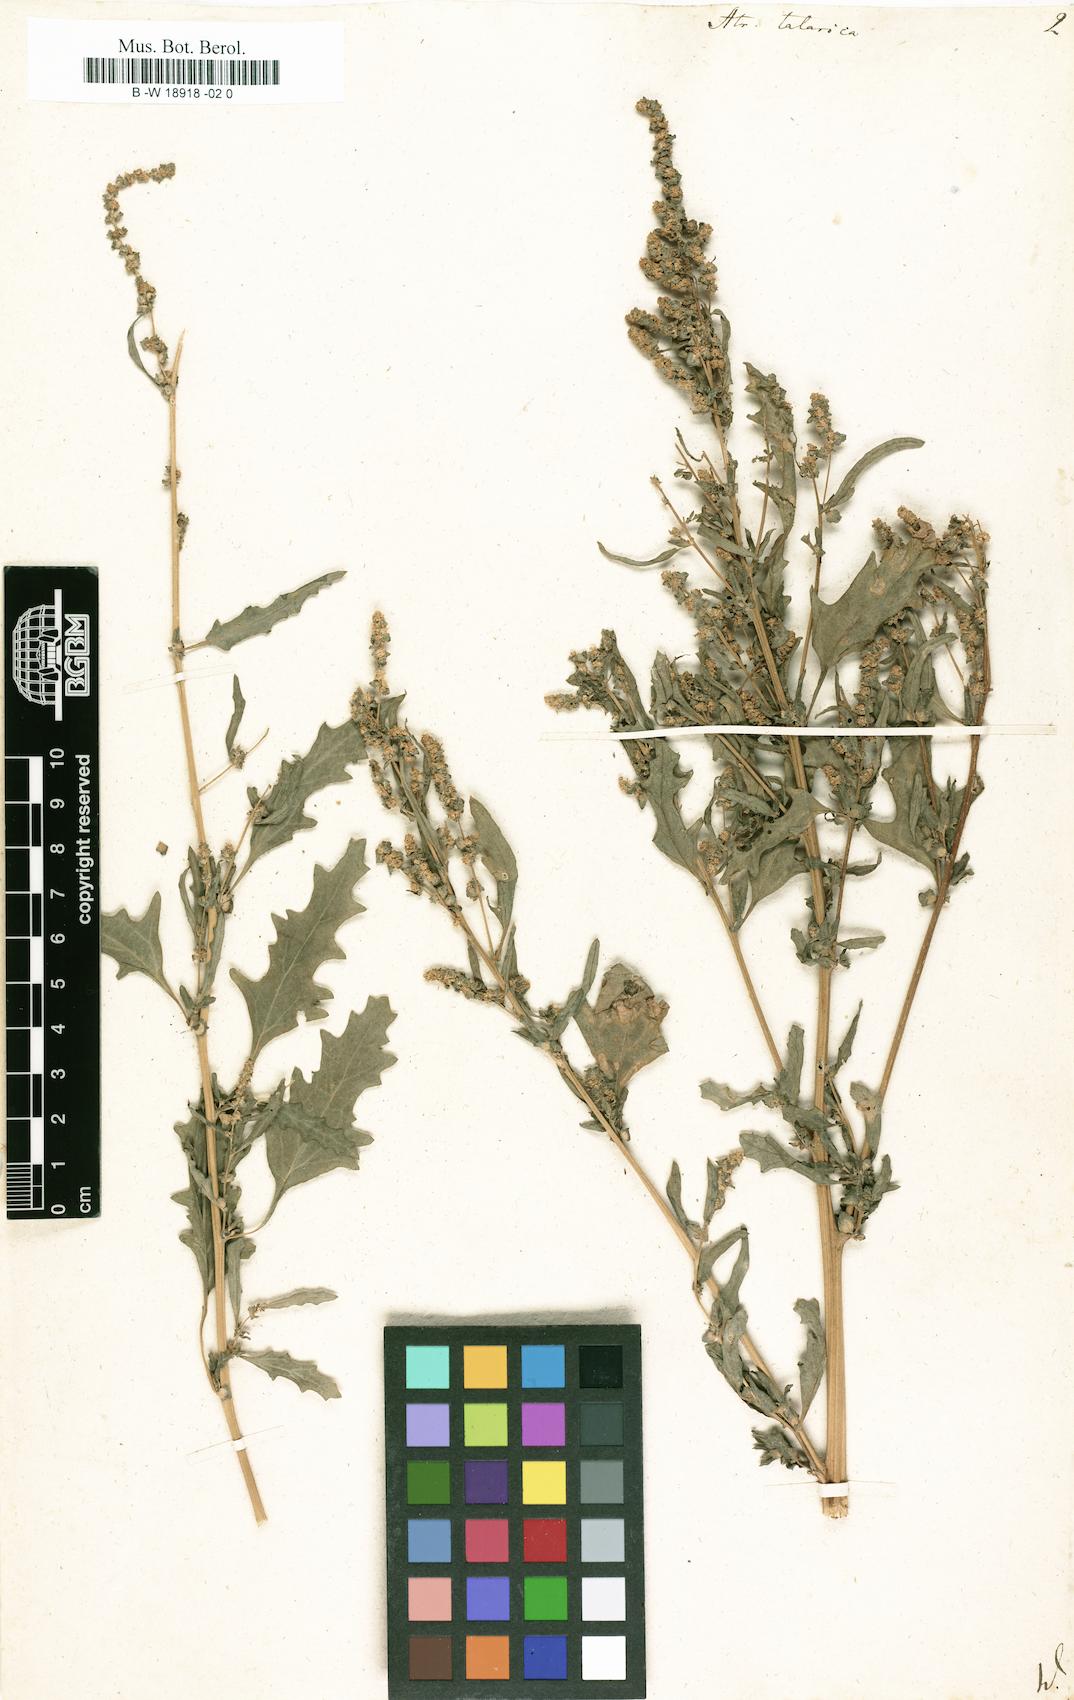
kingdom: Plantae
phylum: Tracheophyta
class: Magnoliopsida
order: Caryophyllales
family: Amaranthaceae
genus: Atriplex
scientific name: Atriplex tatarica
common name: Tatarian orache
